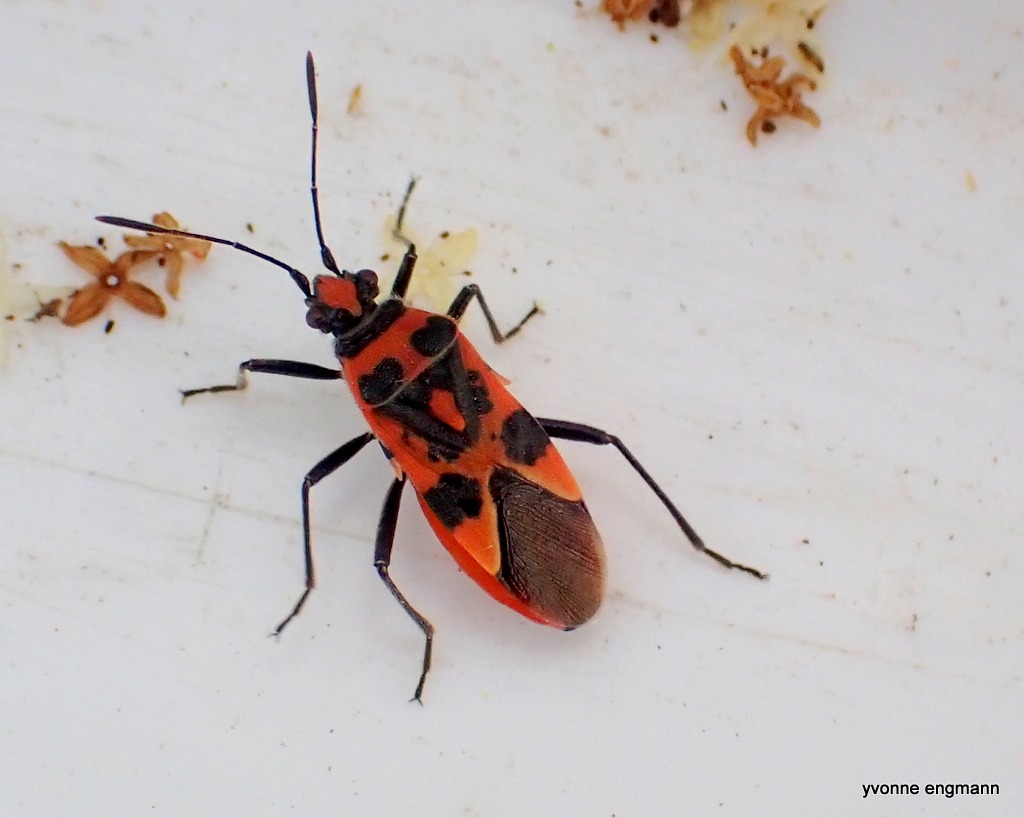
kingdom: Animalia
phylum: Arthropoda
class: Insecta
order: Hemiptera
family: Rhopalidae
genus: Corizus
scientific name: Corizus hyoscyami
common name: Rød kanttæge
